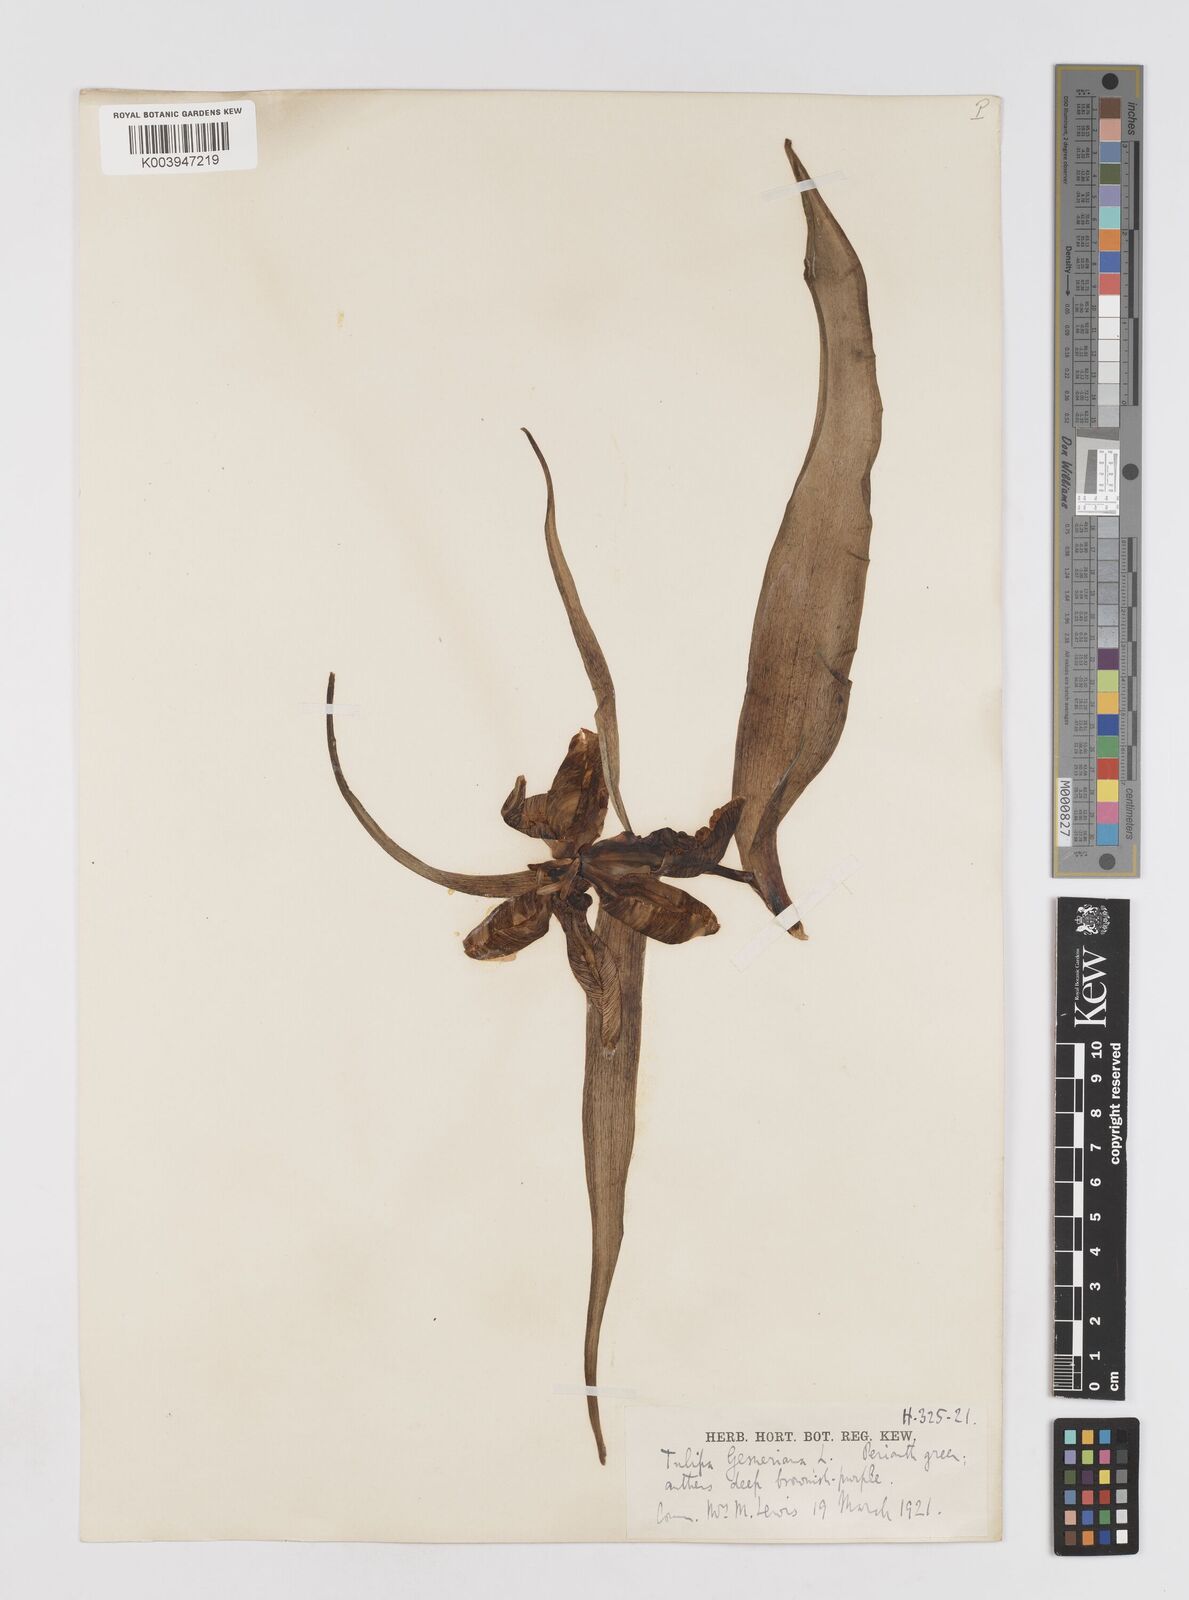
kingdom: Plantae
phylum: Tracheophyta
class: Liliopsida
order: Liliales
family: Liliaceae
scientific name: Liliaceae
